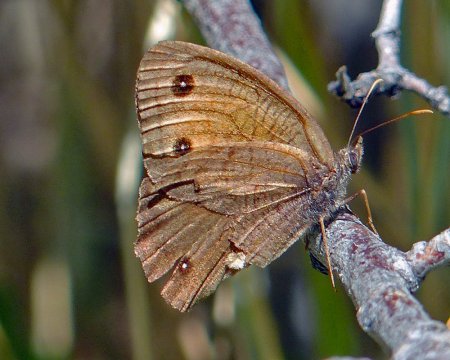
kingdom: Animalia
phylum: Arthropoda
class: Insecta
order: Lepidoptera
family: Nymphalidae
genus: Cercyonis
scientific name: Cercyonis meadi
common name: Mead's Wood-Nymph
